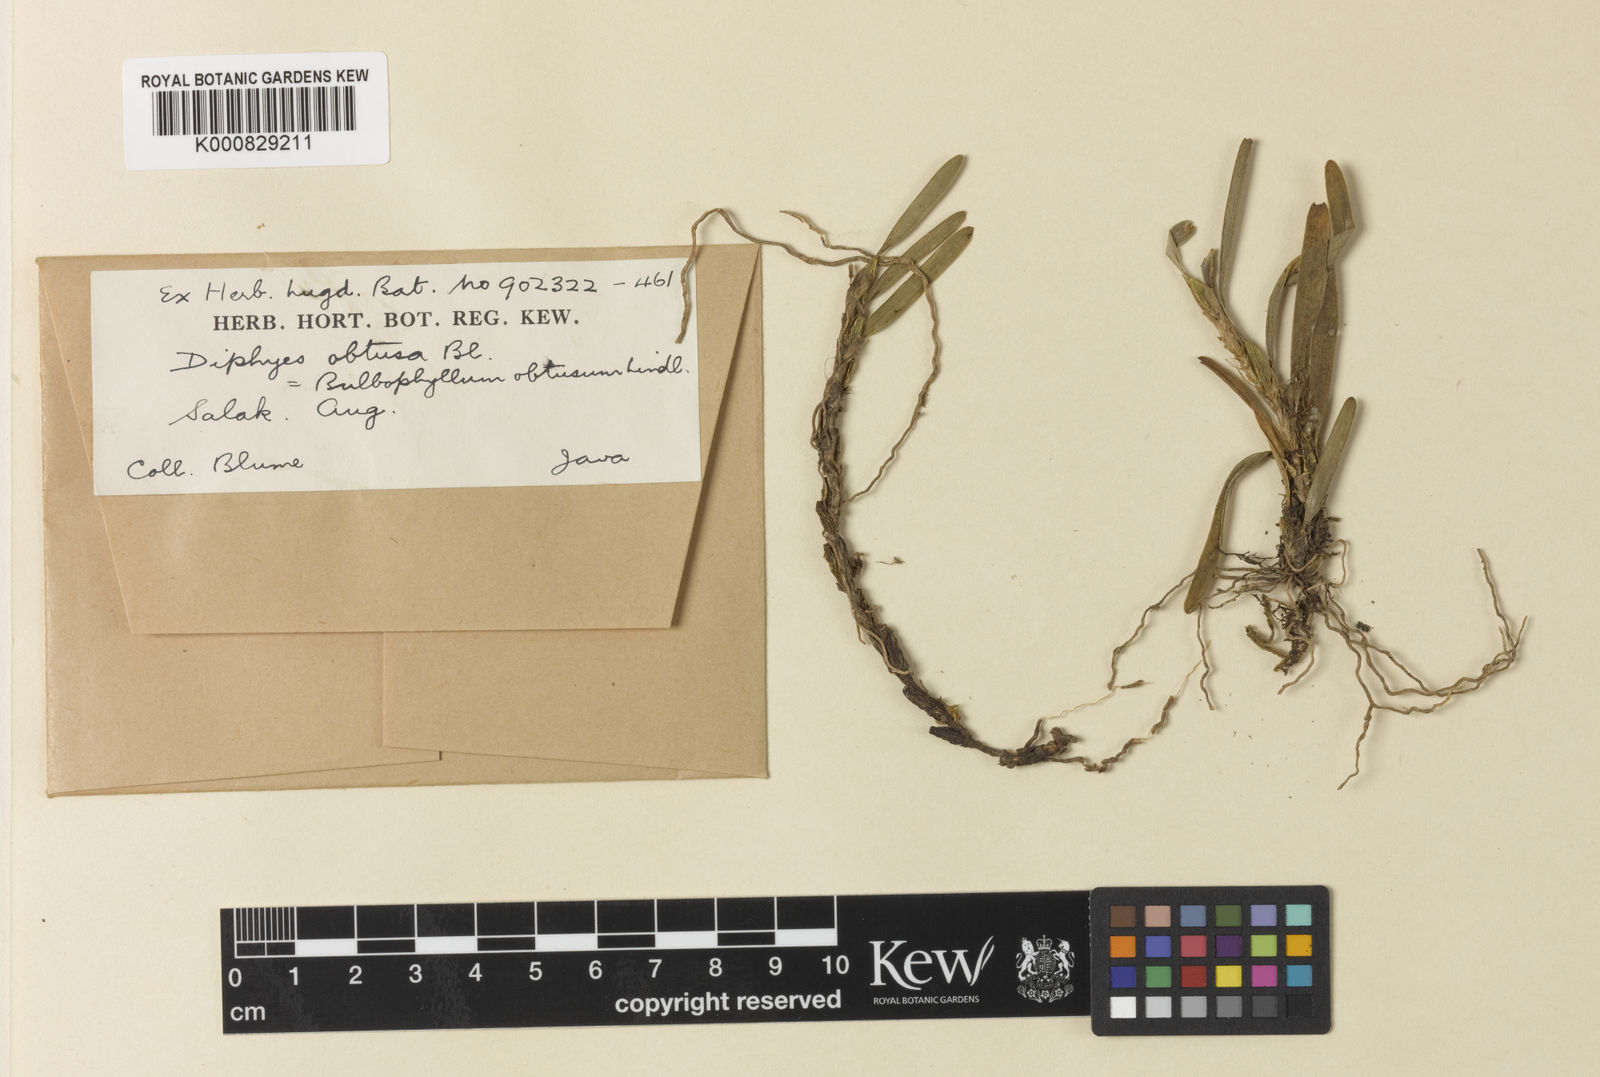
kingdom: Plantae
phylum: Tracheophyta
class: Liliopsida
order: Asparagales
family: Orchidaceae
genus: Bulbophyllum
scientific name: Bulbophyllum obtusatum
